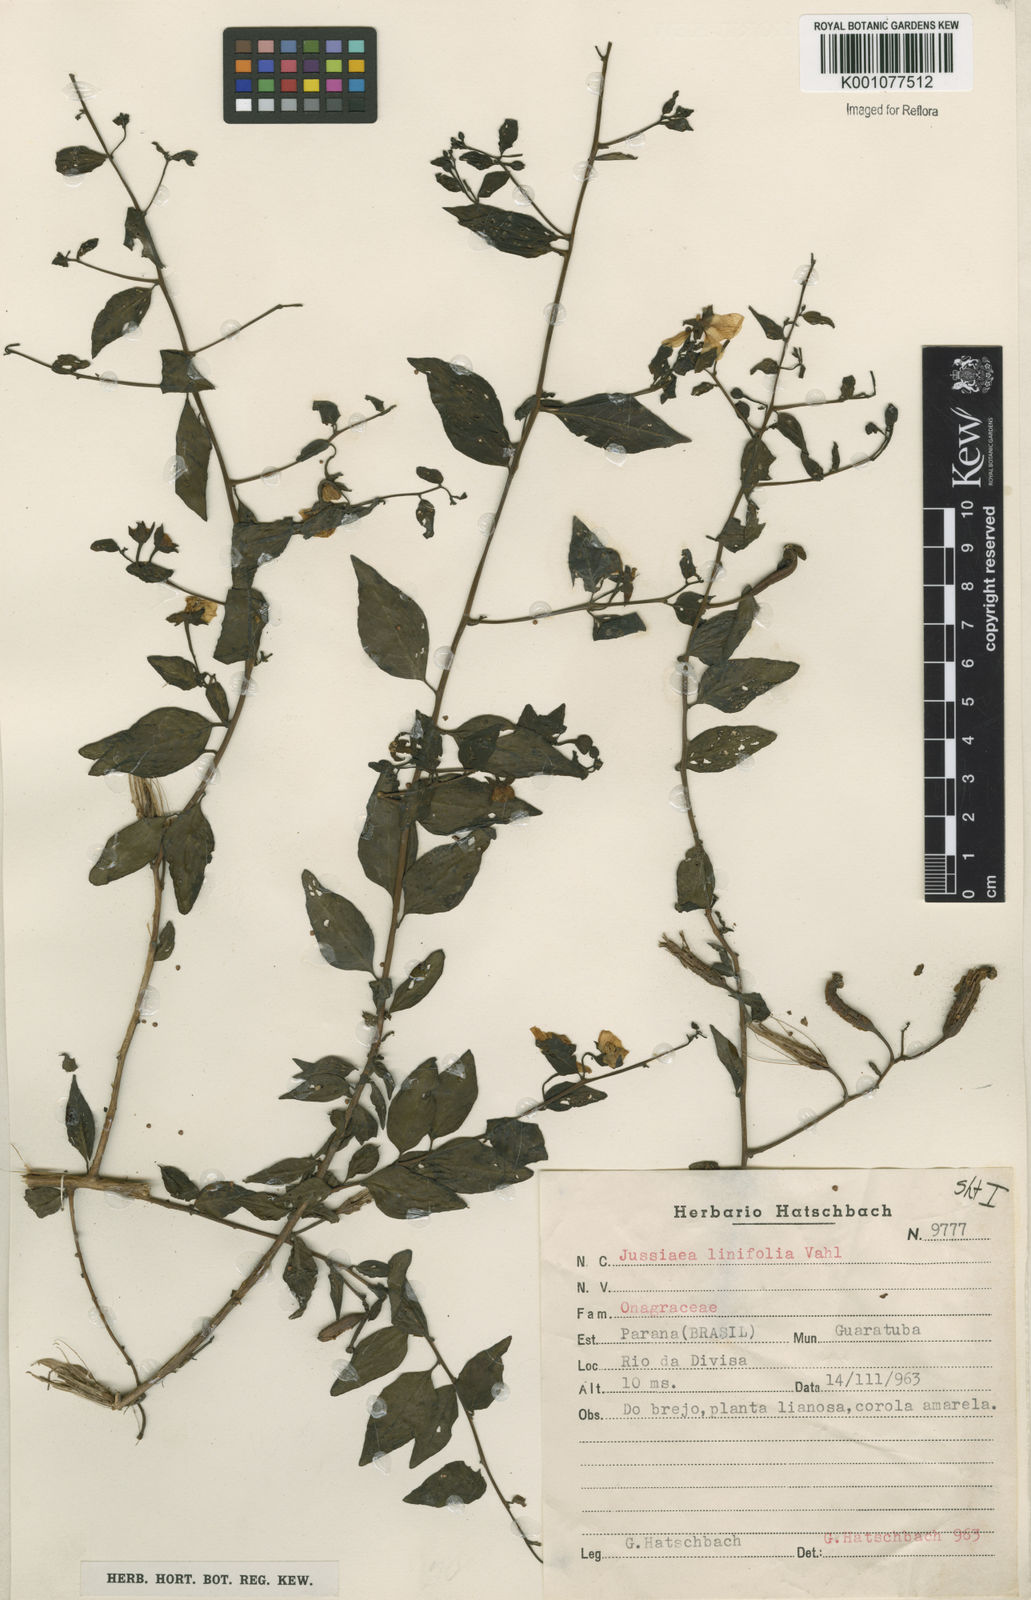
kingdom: Plantae
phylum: Tracheophyta
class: Magnoliopsida
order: Myrtales
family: Onagraceae
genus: Ludwigia
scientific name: Ludwigia hyssopifolia
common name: Linear leaf water primrose
